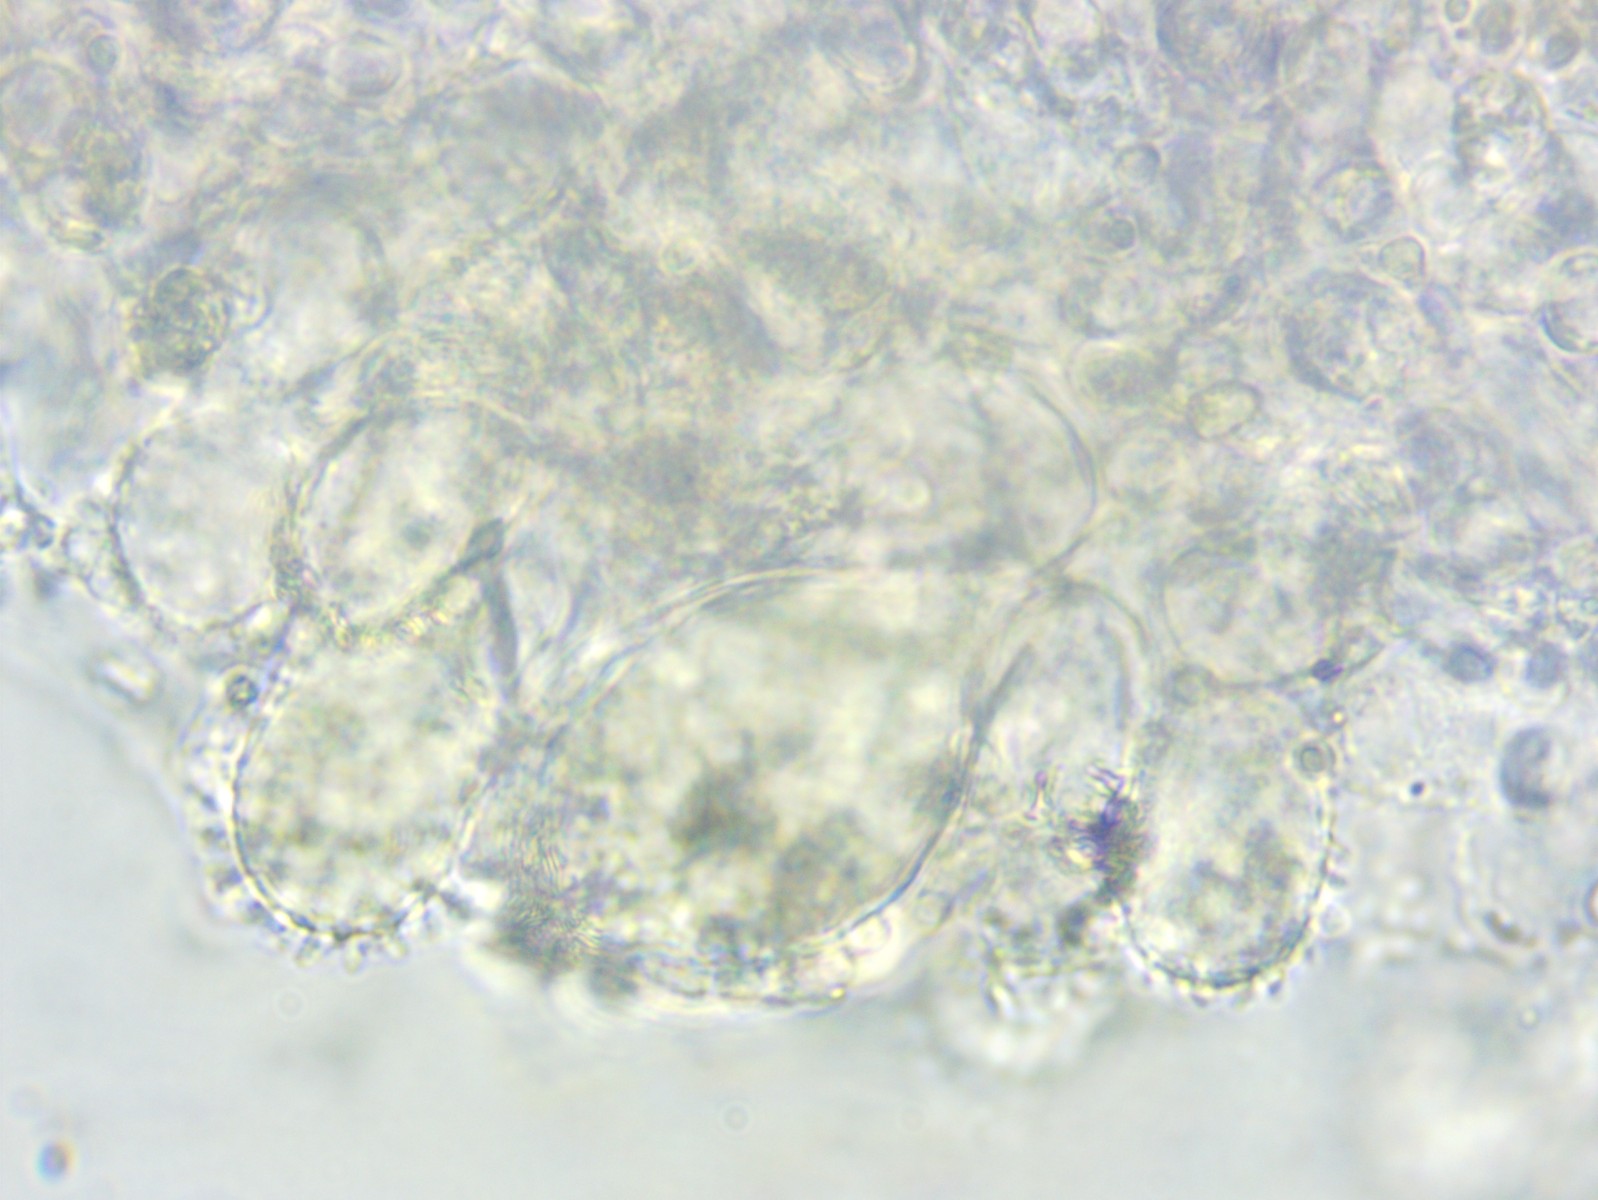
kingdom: Fungi
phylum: Basidiomycota
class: Agaricomycetes
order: Agaricales
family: Mycenaceae
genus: Mycena
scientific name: Mycena flavescens
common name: grågul huesvamp
